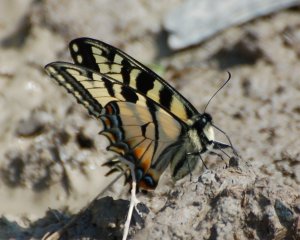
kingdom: Animalia
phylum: Arthropoda
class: Insecta
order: Lepidoptera
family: Papilionidae
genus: Pterourus
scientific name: Pterourus canadensis
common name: Canadian Tiger Swallowtail
